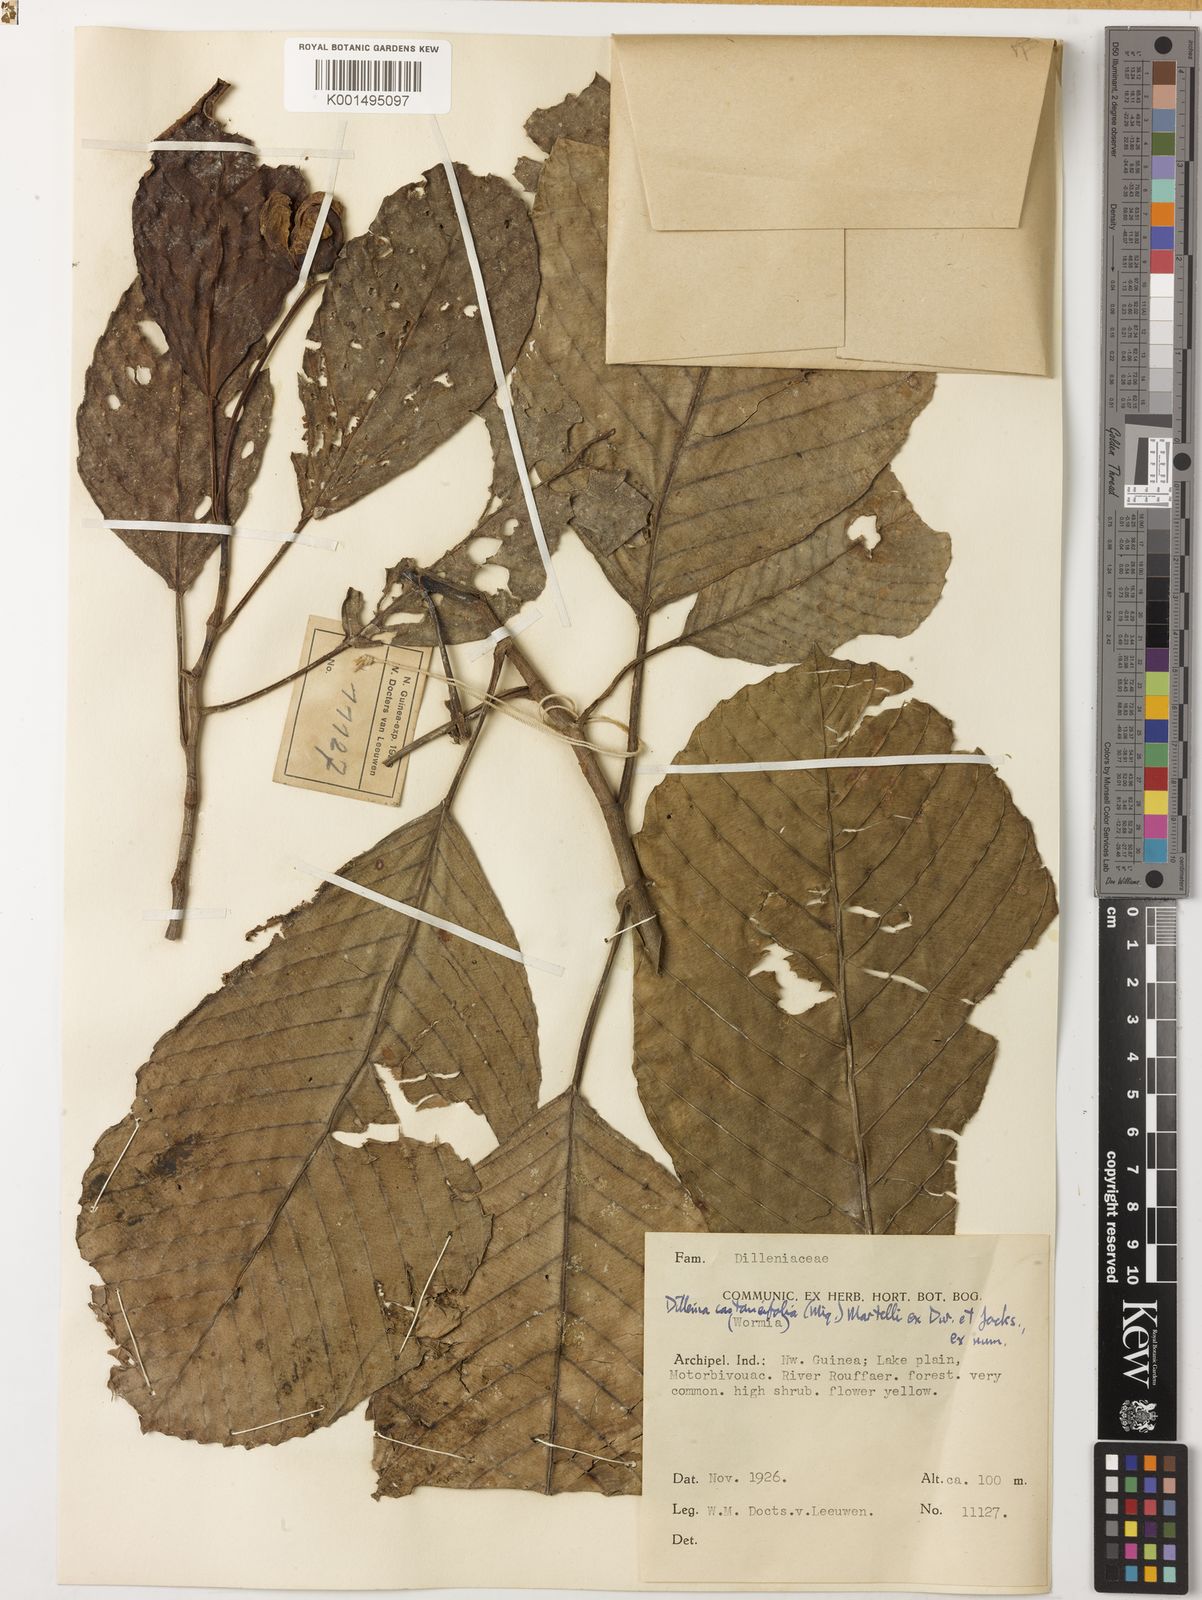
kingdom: Plantae
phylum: Tracheophyta
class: Magnoliopsida
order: Dilleniales
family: Dilleniaceae
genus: Dillenia
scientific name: Dillenia castaneifolia
